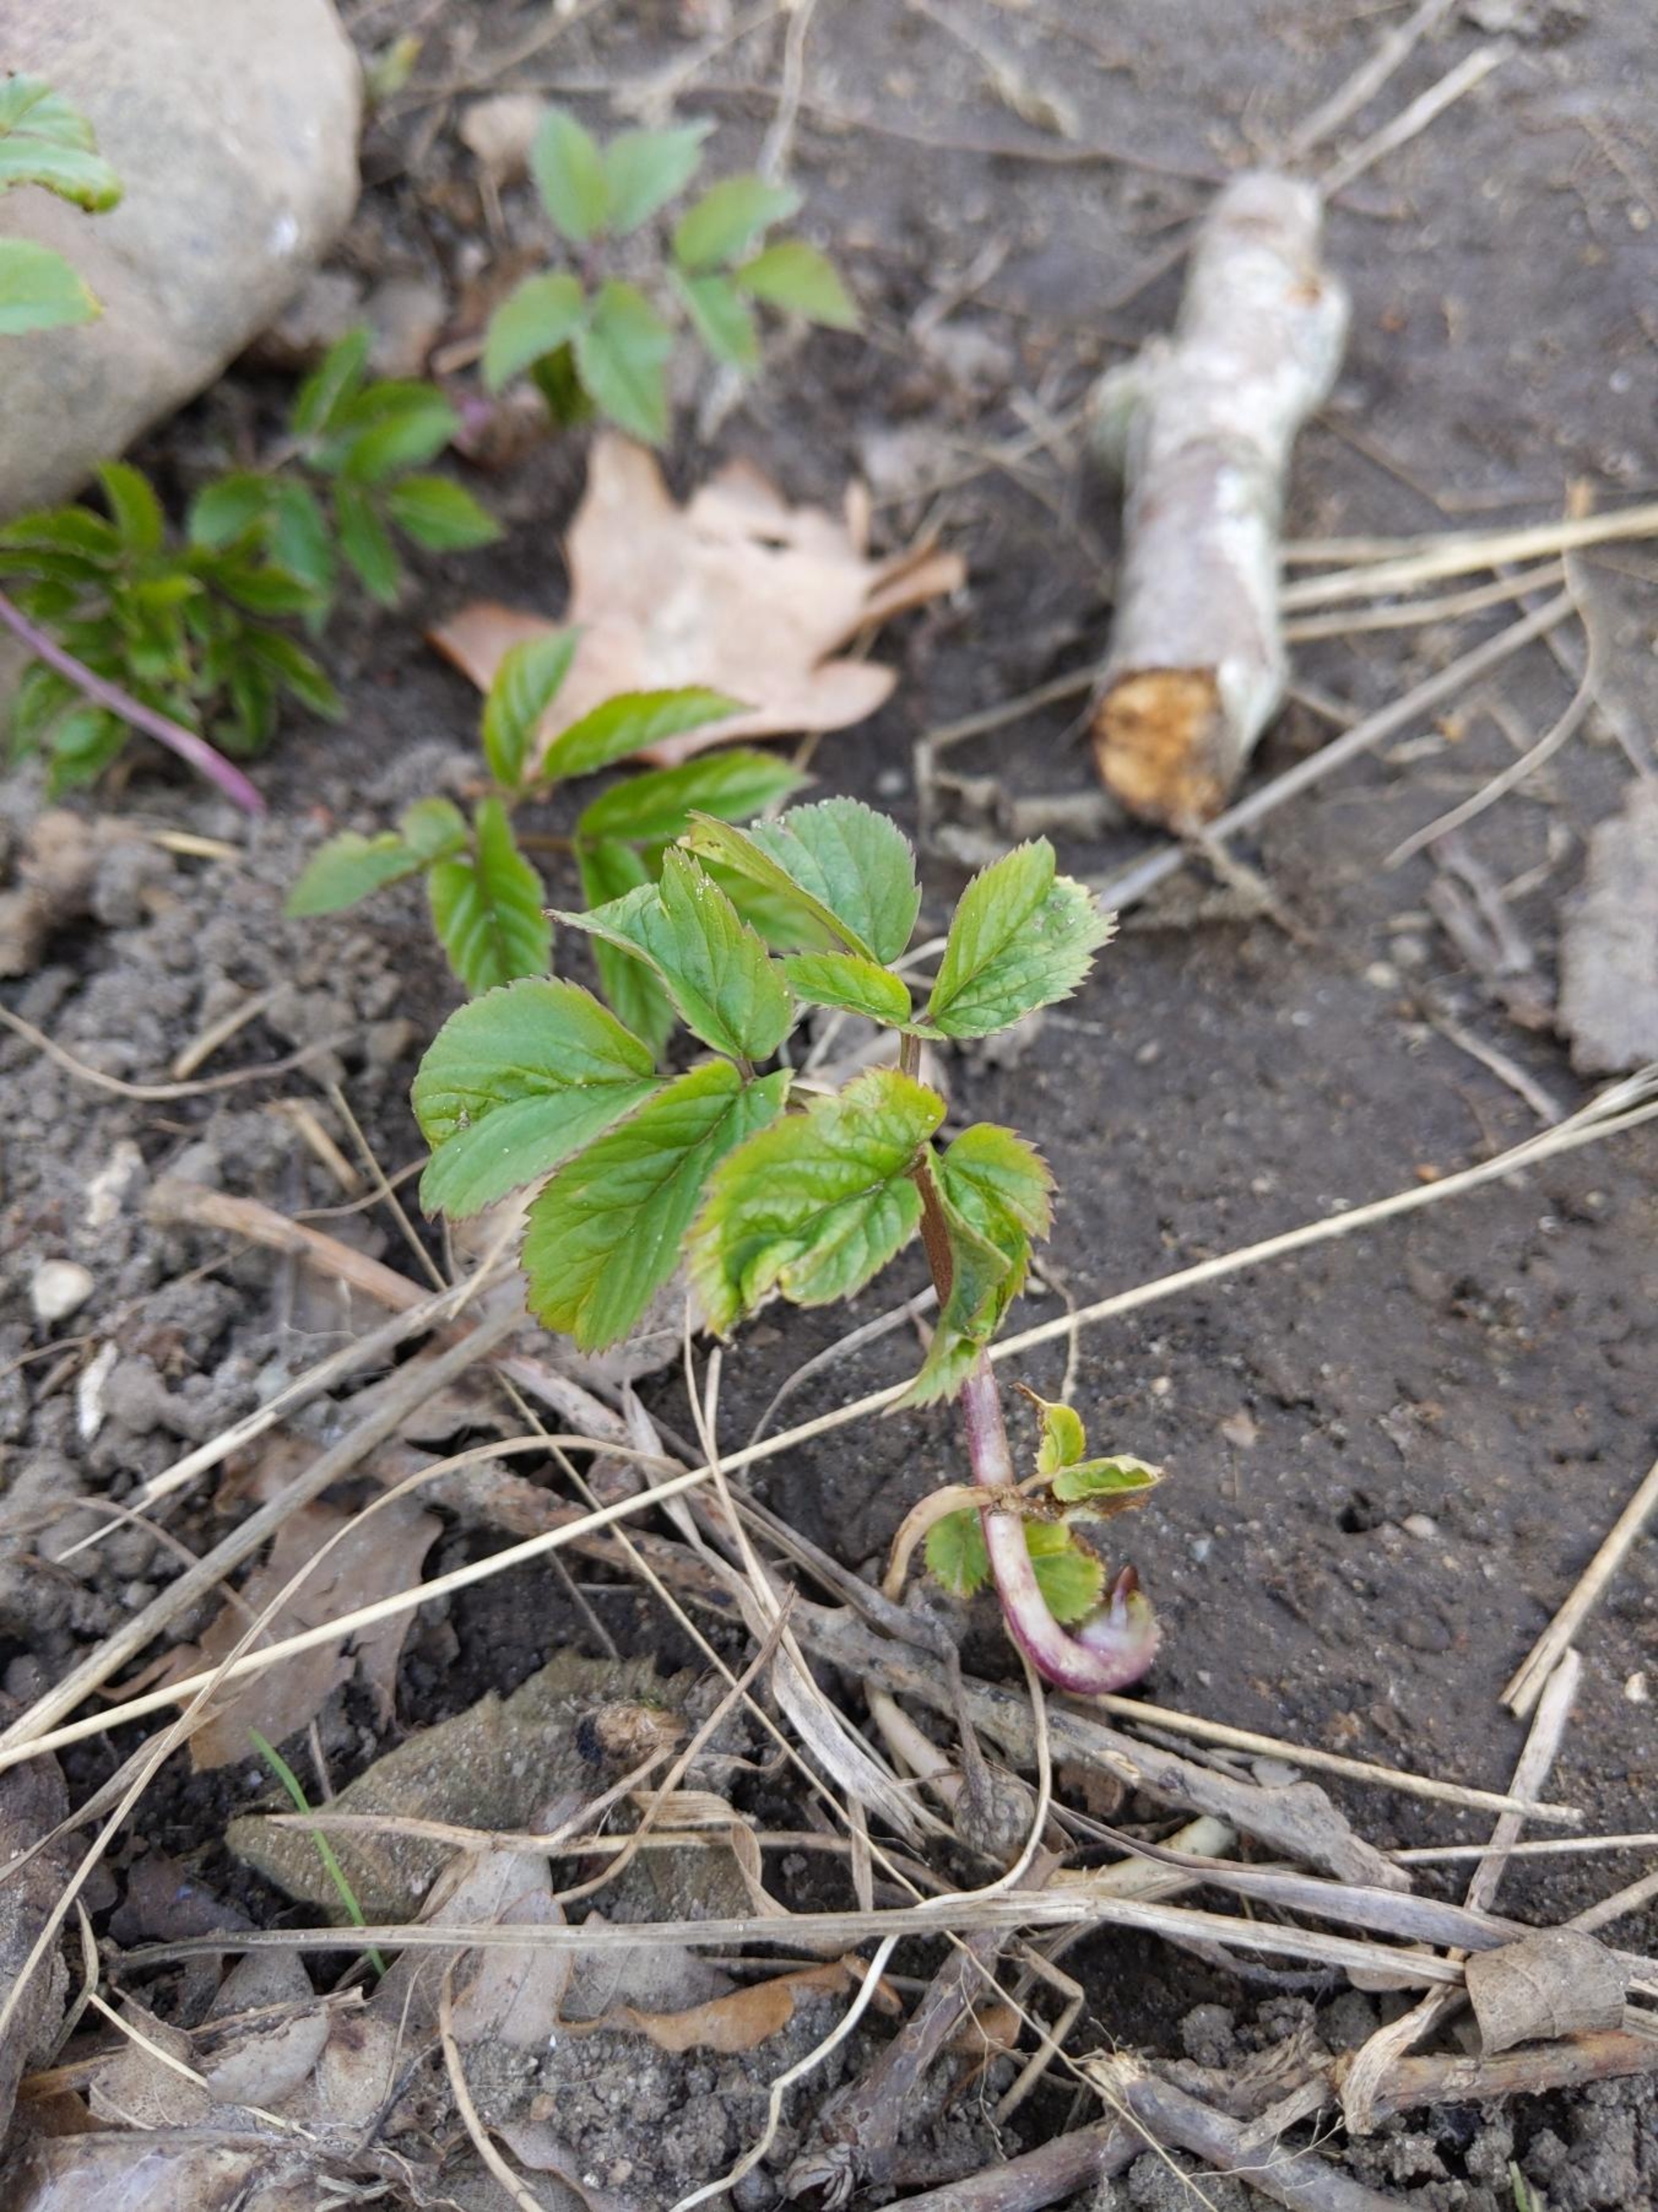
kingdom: Plantae
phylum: Tracheophyta
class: Magnoliopsida
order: Apiales
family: Apiaceae
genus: Aegopodium
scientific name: Aegopodium podagraria
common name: Skvalderkål
